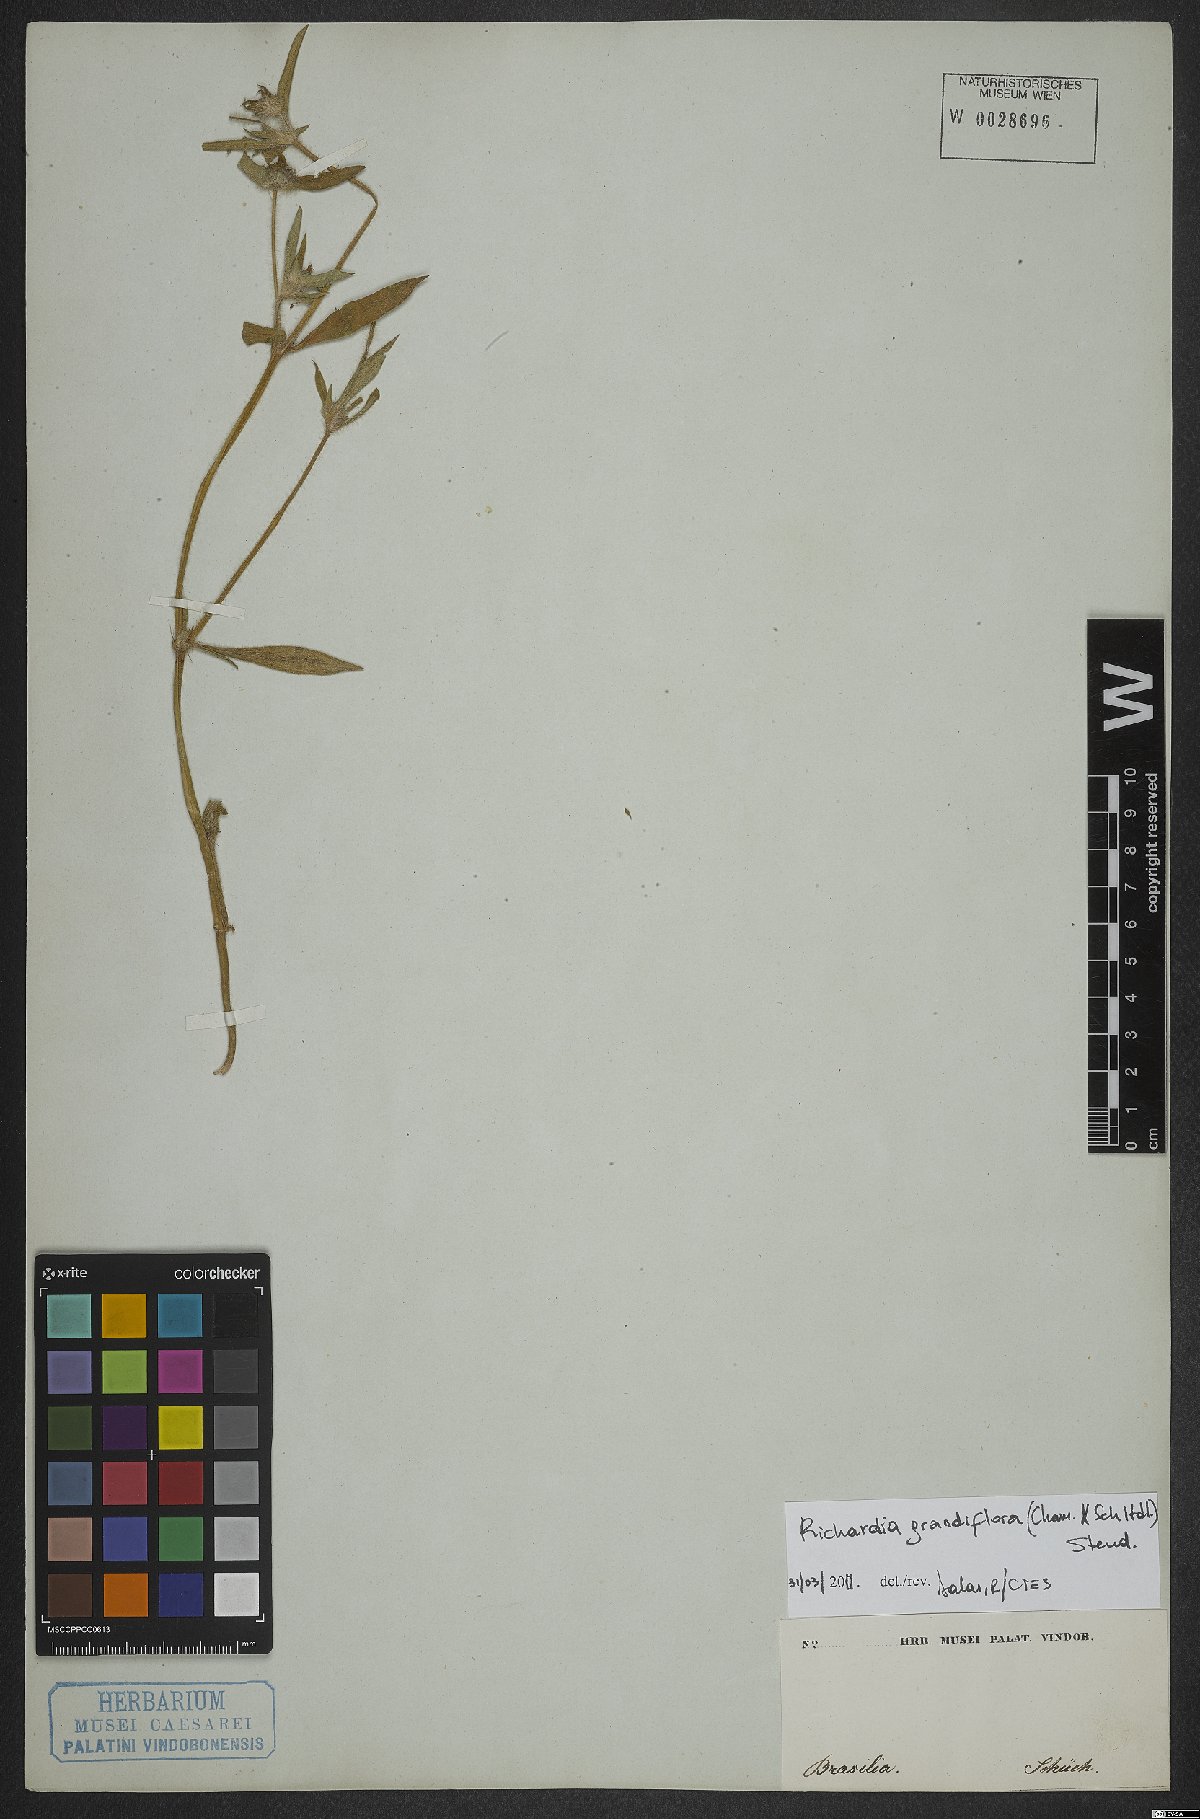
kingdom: Plantae
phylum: Tracheophyta
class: Magnoliopsida
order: Gentianales
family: Rubiaceae
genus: Richardia
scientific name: Richardia grandiflora
